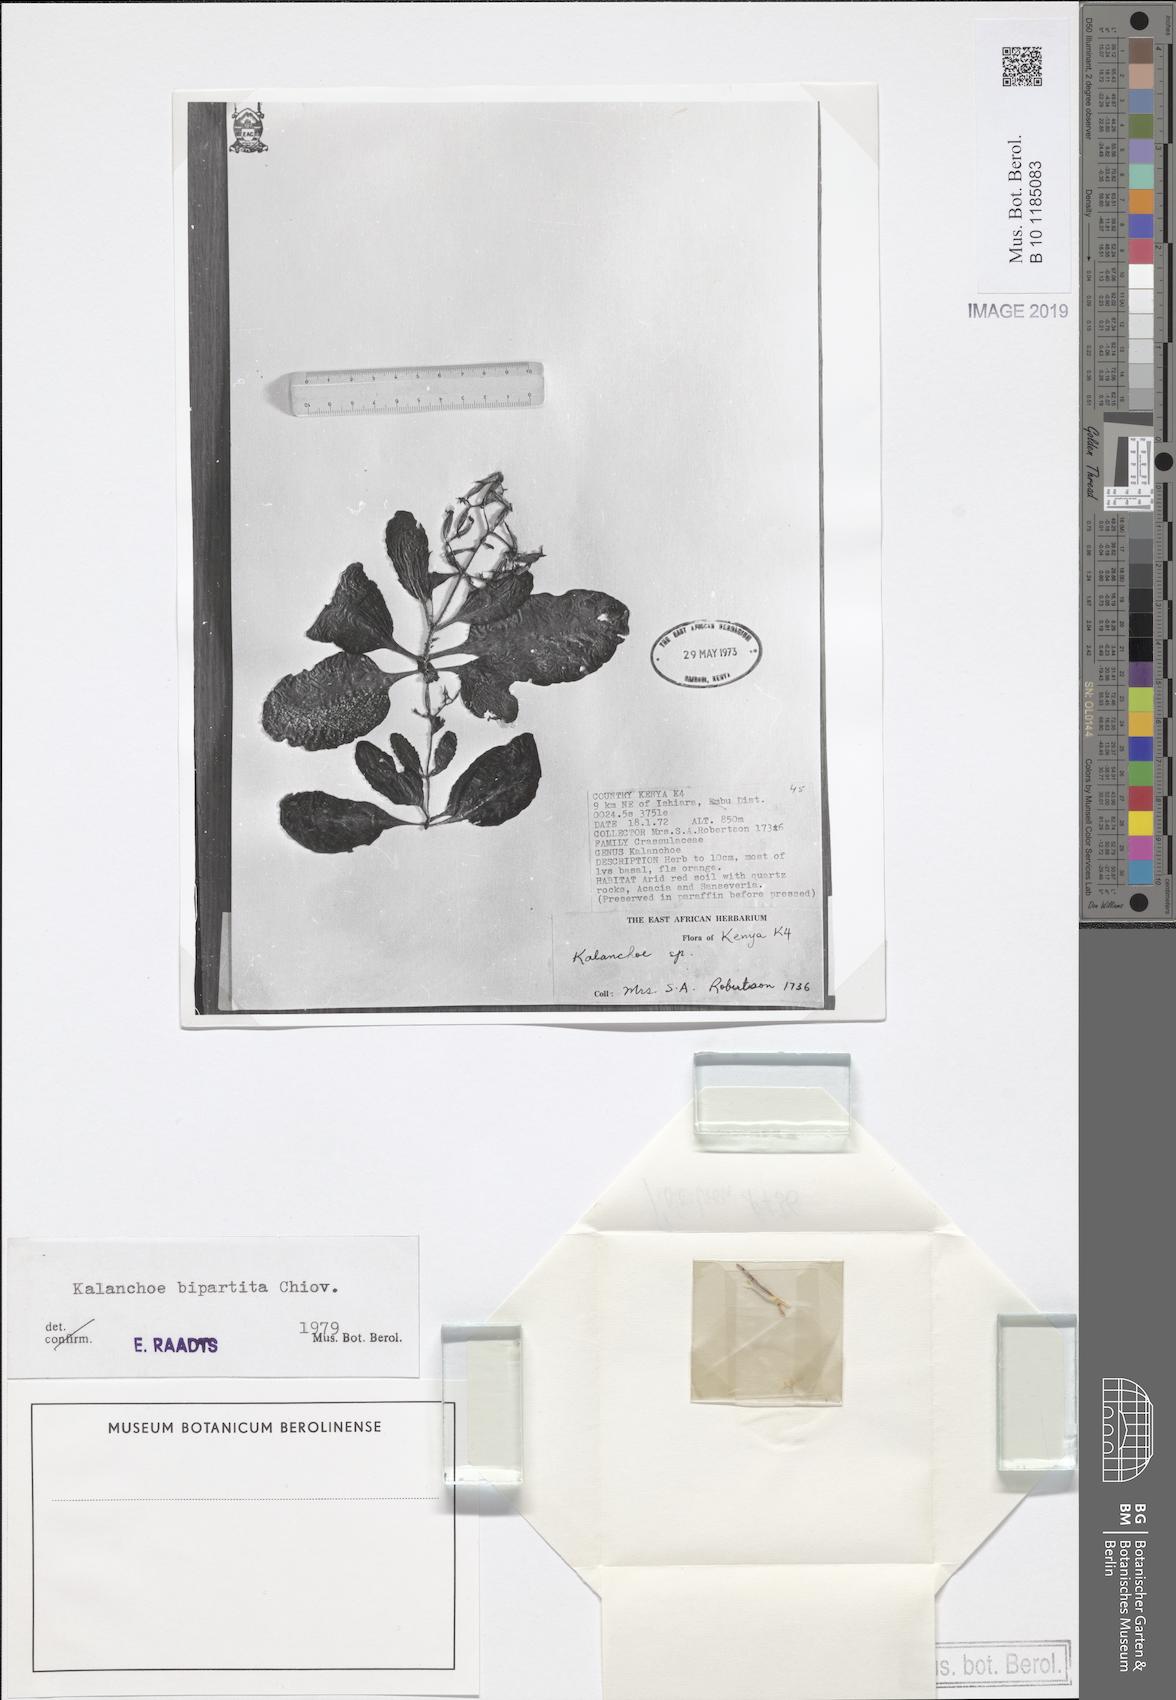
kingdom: Plantae
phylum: Tracheophyta
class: Magnoliopsida
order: Saxifragales
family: Crassulaceae
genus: Kalanchoe
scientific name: Kalanchoe bipartita
